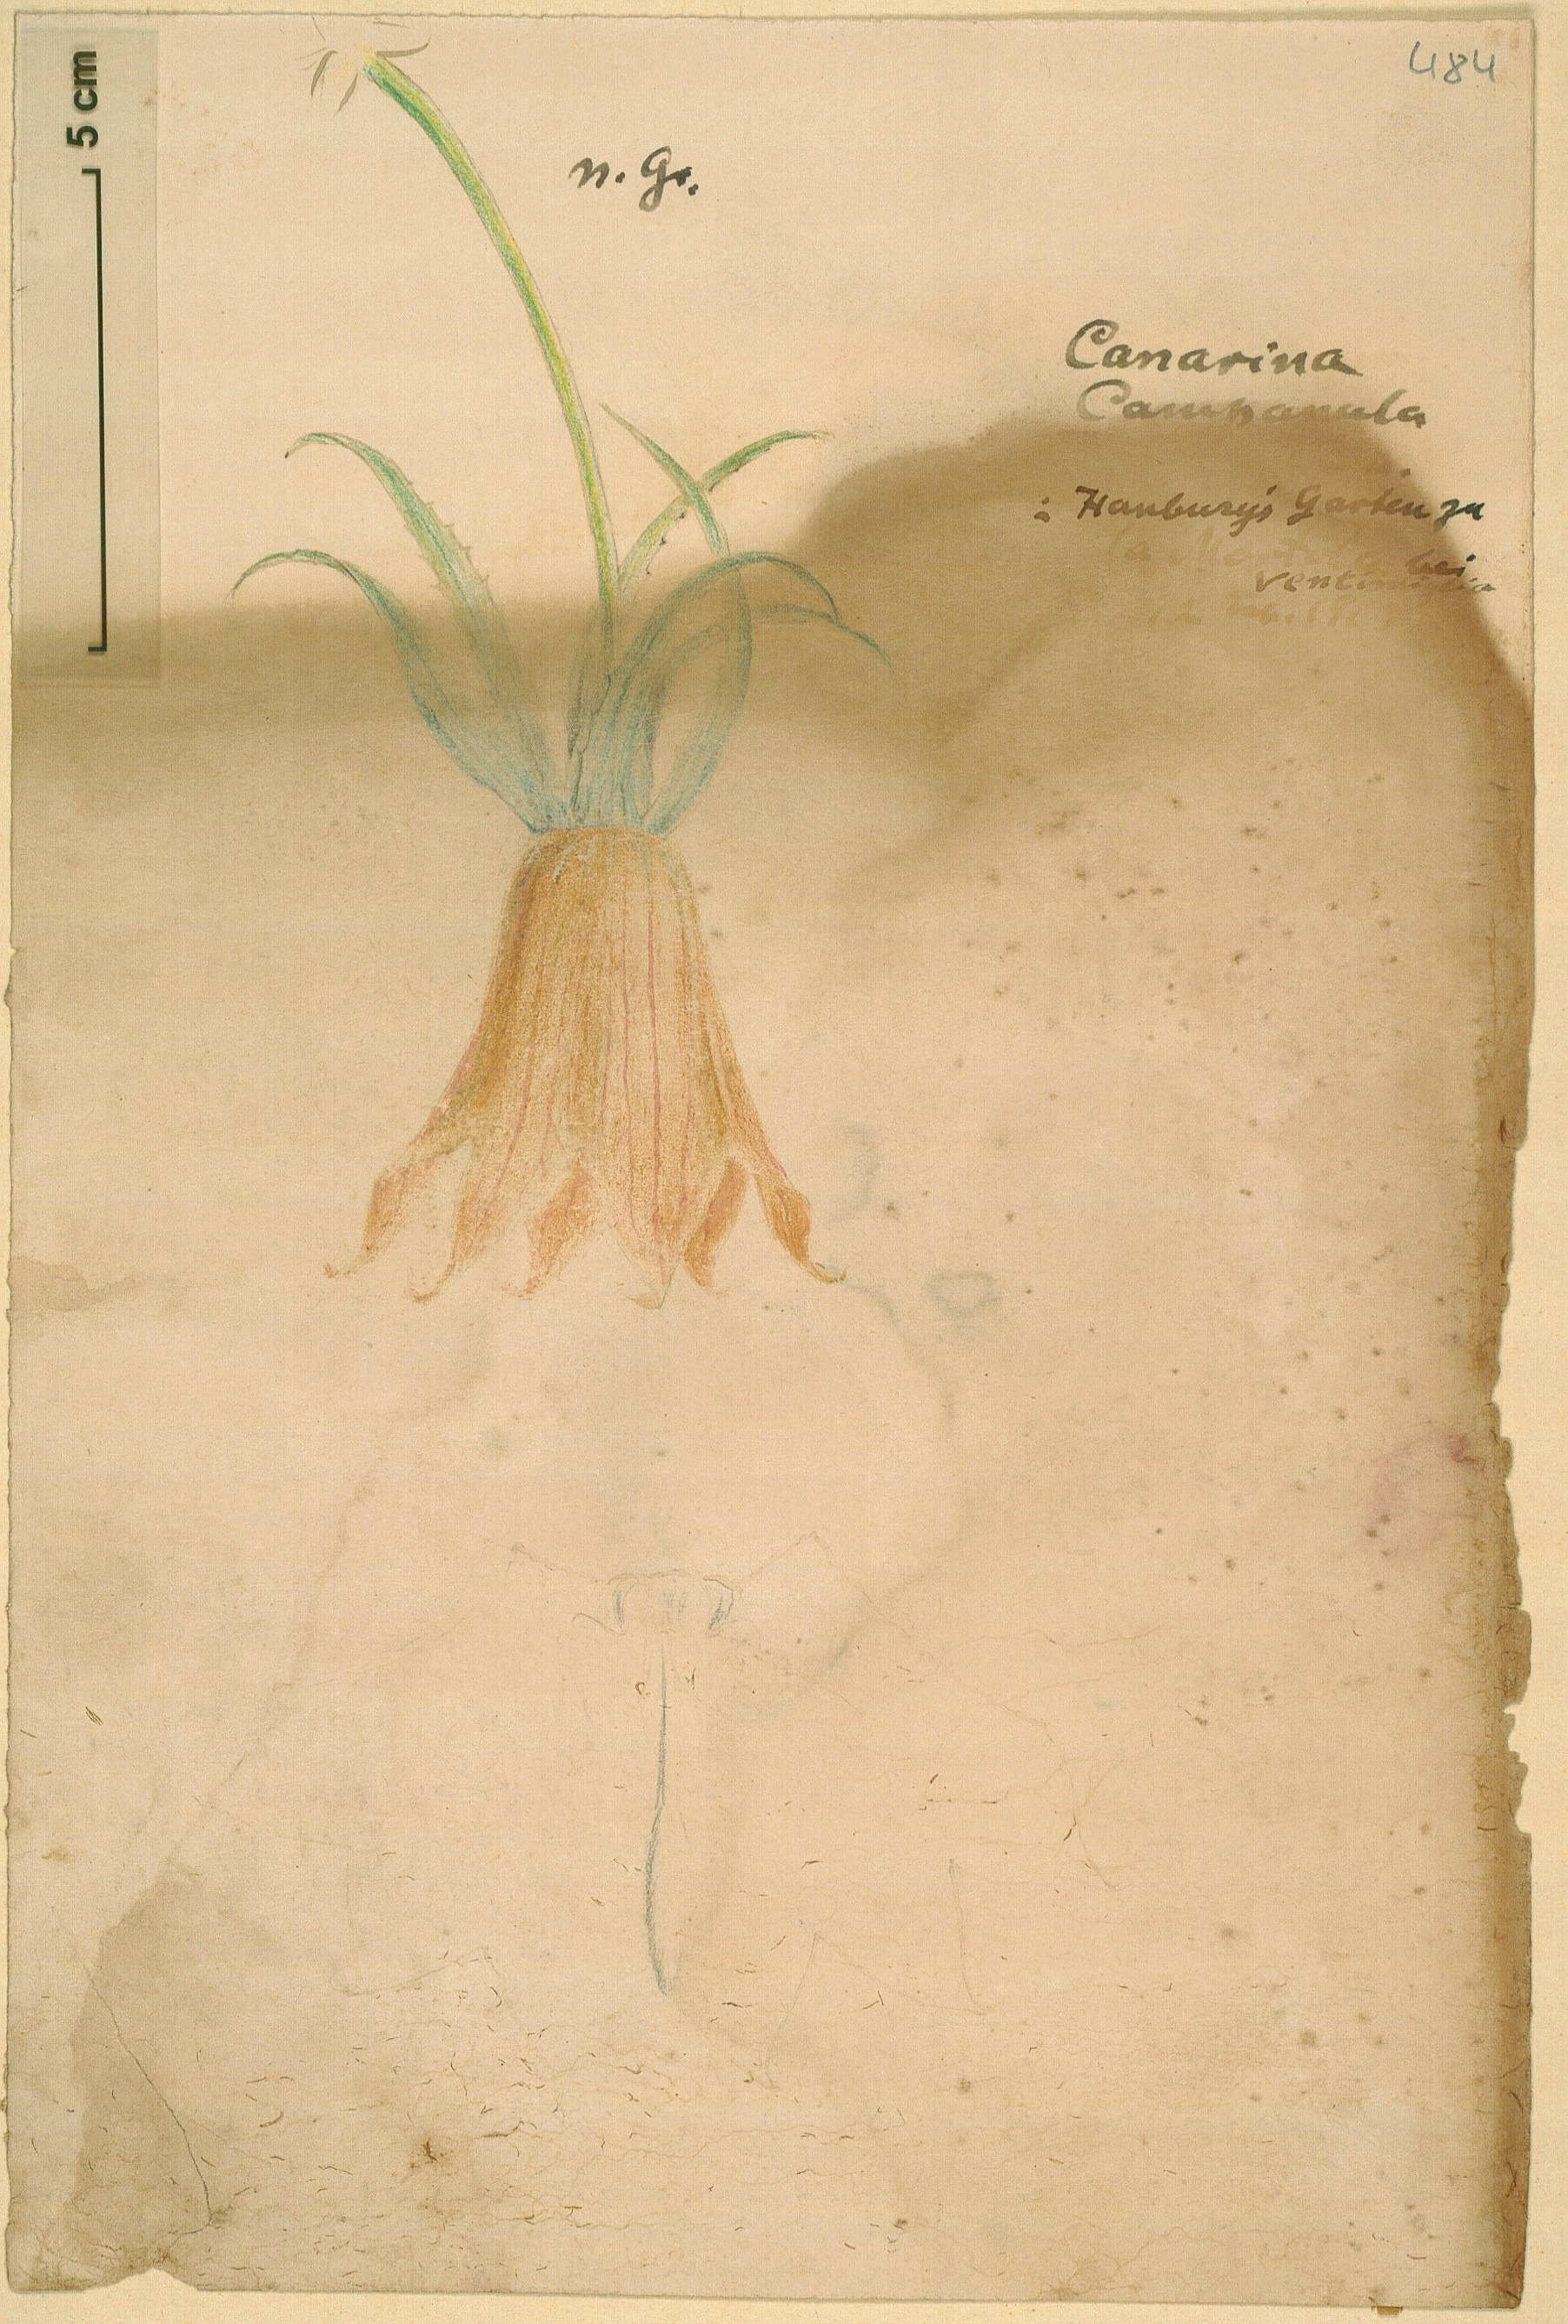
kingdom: Plantae
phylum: Tracheophyta
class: Magnoliopsida
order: Asterales
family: Campanulaceae
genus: Canarina
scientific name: Canarina canariensis
